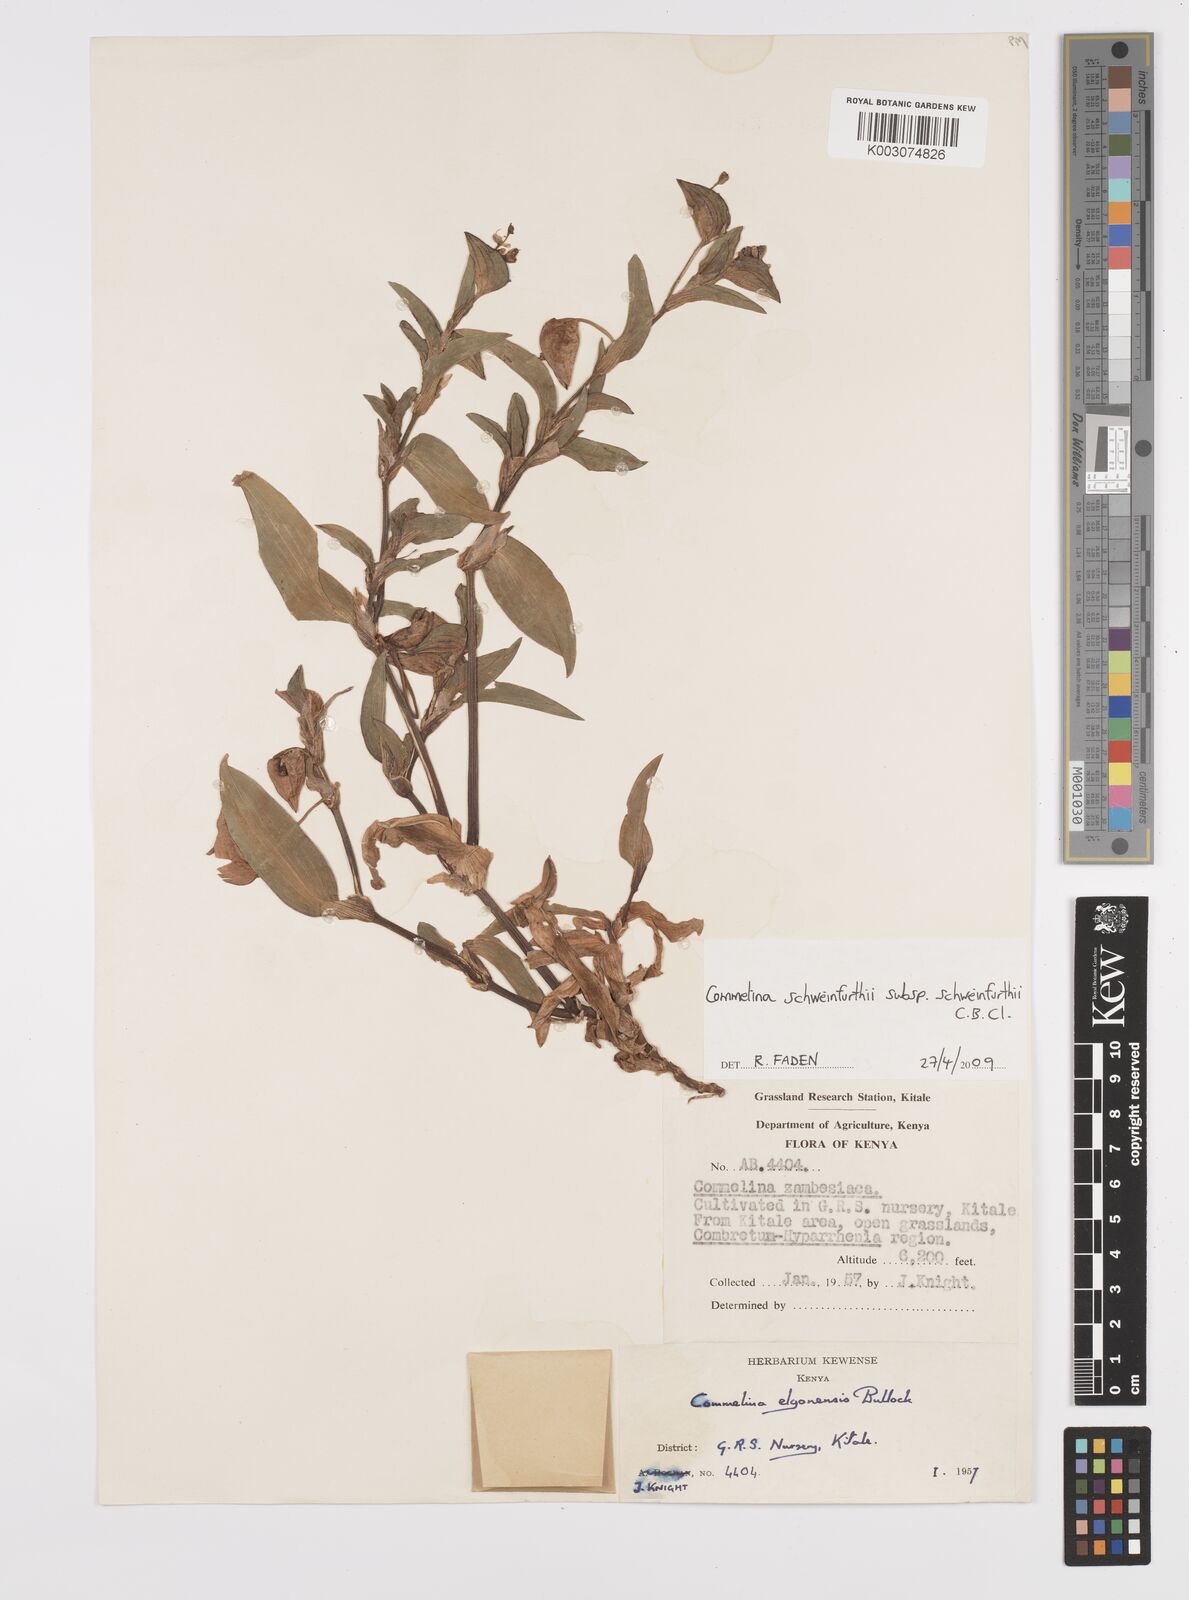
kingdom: Plantae
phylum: Tracheophyta
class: Liliopsida
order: Commelinales
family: Commelinaceae
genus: Commelina
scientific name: Commelina schweinfurthii
